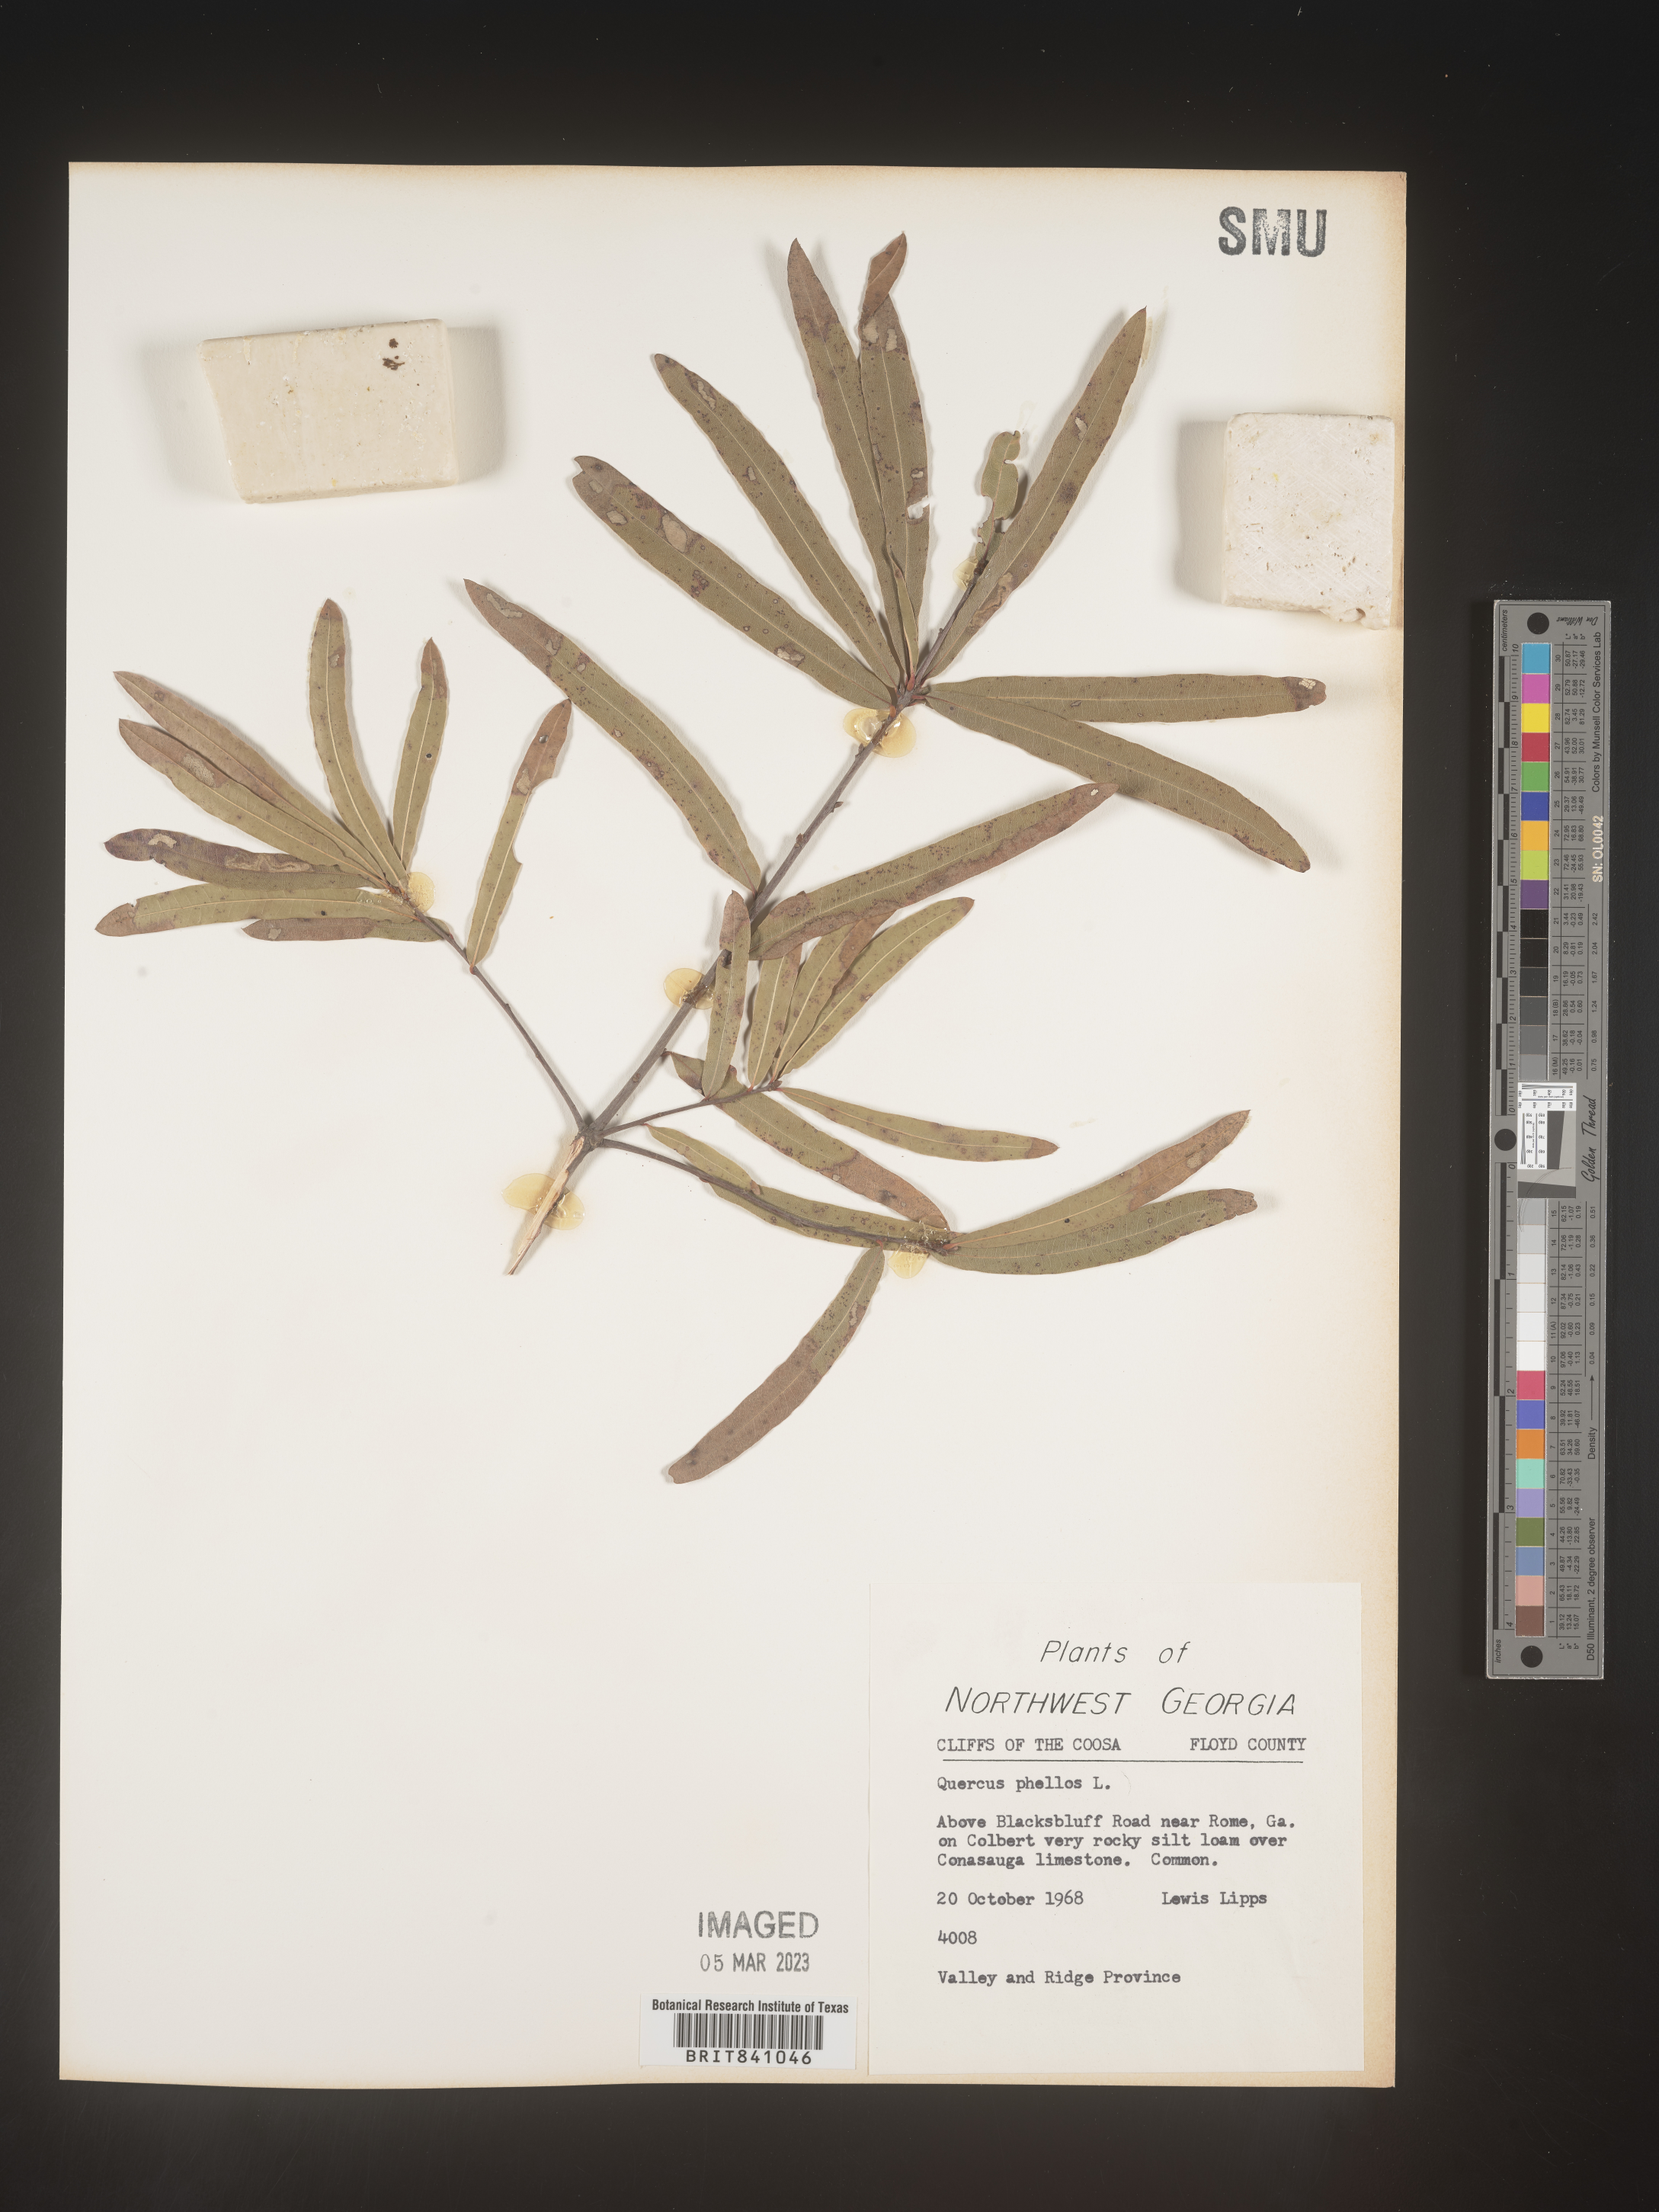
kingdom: Plantae
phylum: Tracheophyta
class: Magnoliopsida
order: Fagales
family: Fagaceae
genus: Quercus
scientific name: Quercus phellos
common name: Willow oak
